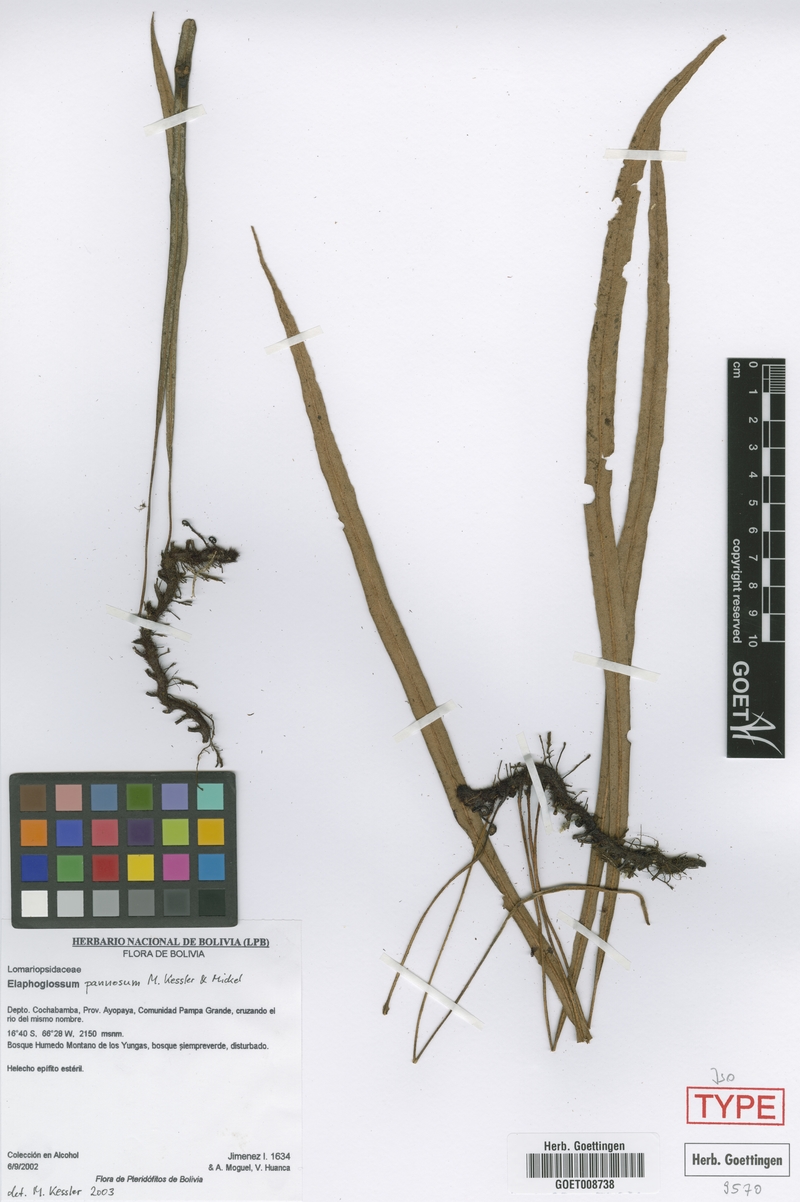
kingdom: Plantae
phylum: Tracheophyta
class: Polypodiopsida
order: Polypodiales
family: Dryopteridaceae
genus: Elaphoglossum
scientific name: Elaphoglossum pannosum
